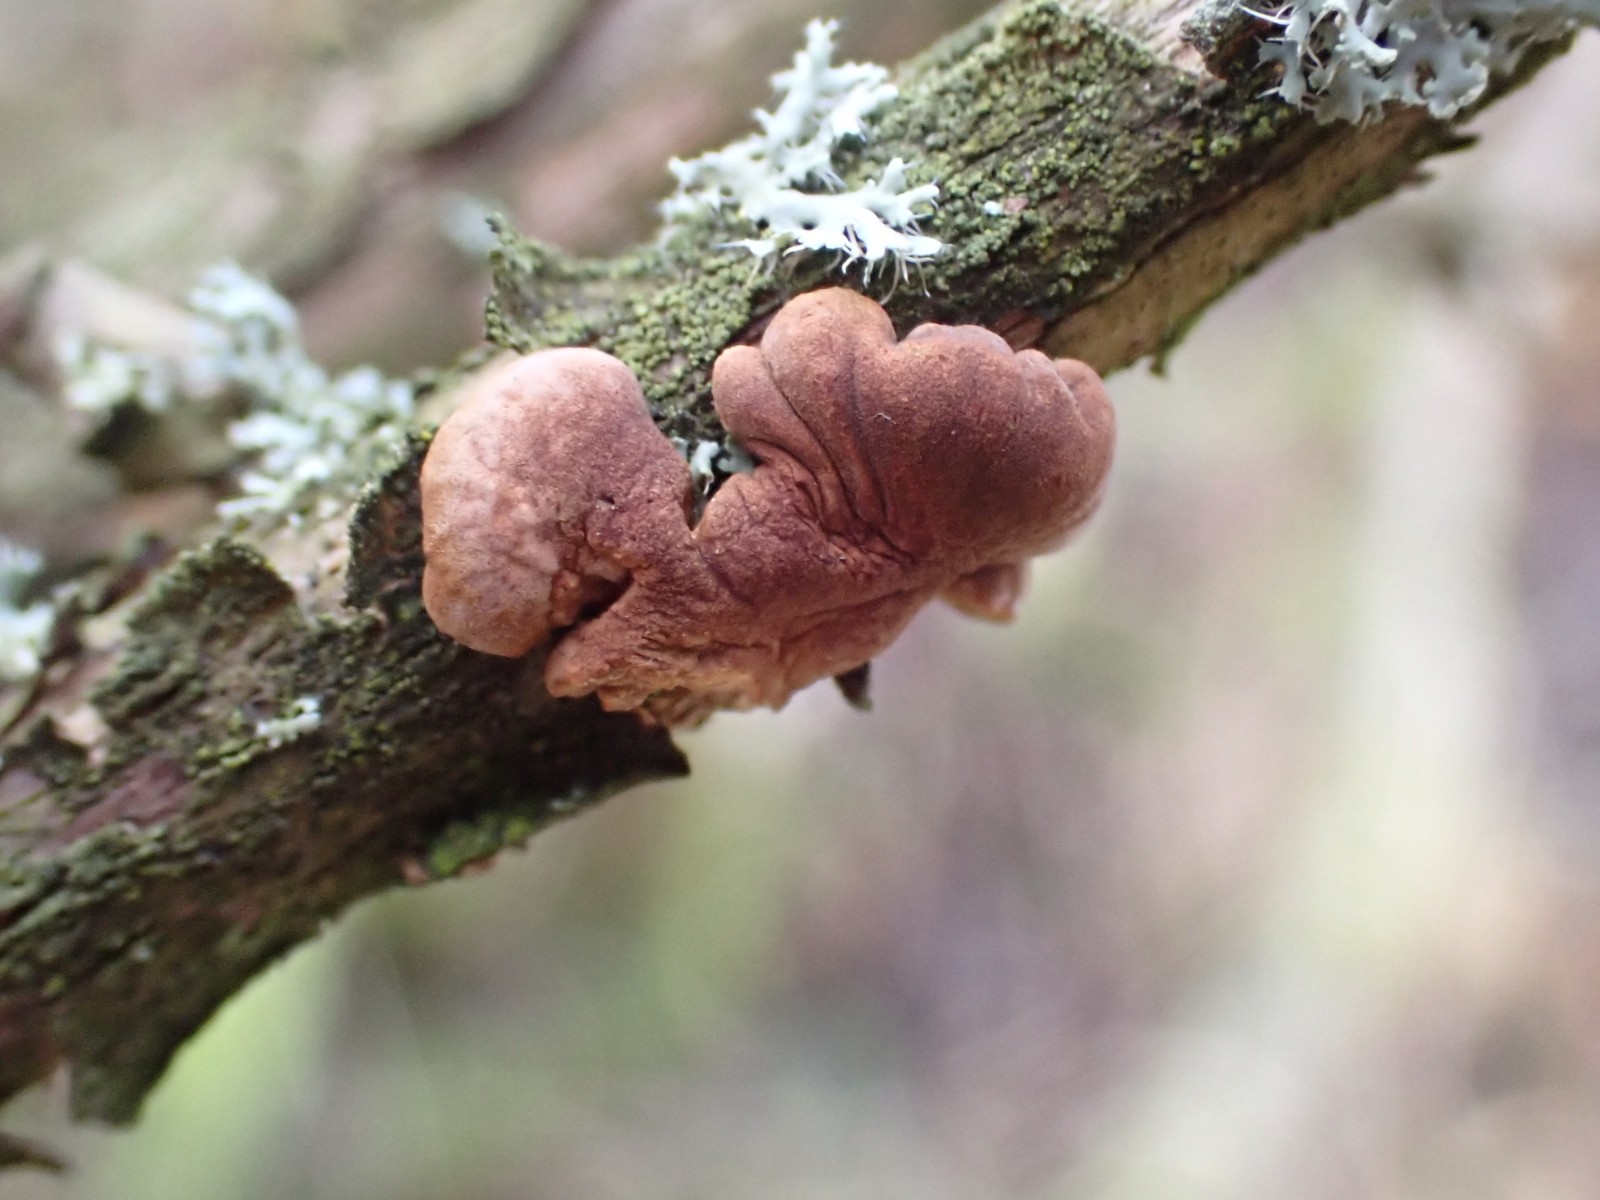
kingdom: Fungi
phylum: Ascomycota
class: Sordariomycetes
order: Hypocreales
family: Hypocreaceae
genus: Hypocreopsis
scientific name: Hypocreopsis lichenoides
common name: pilfinger
